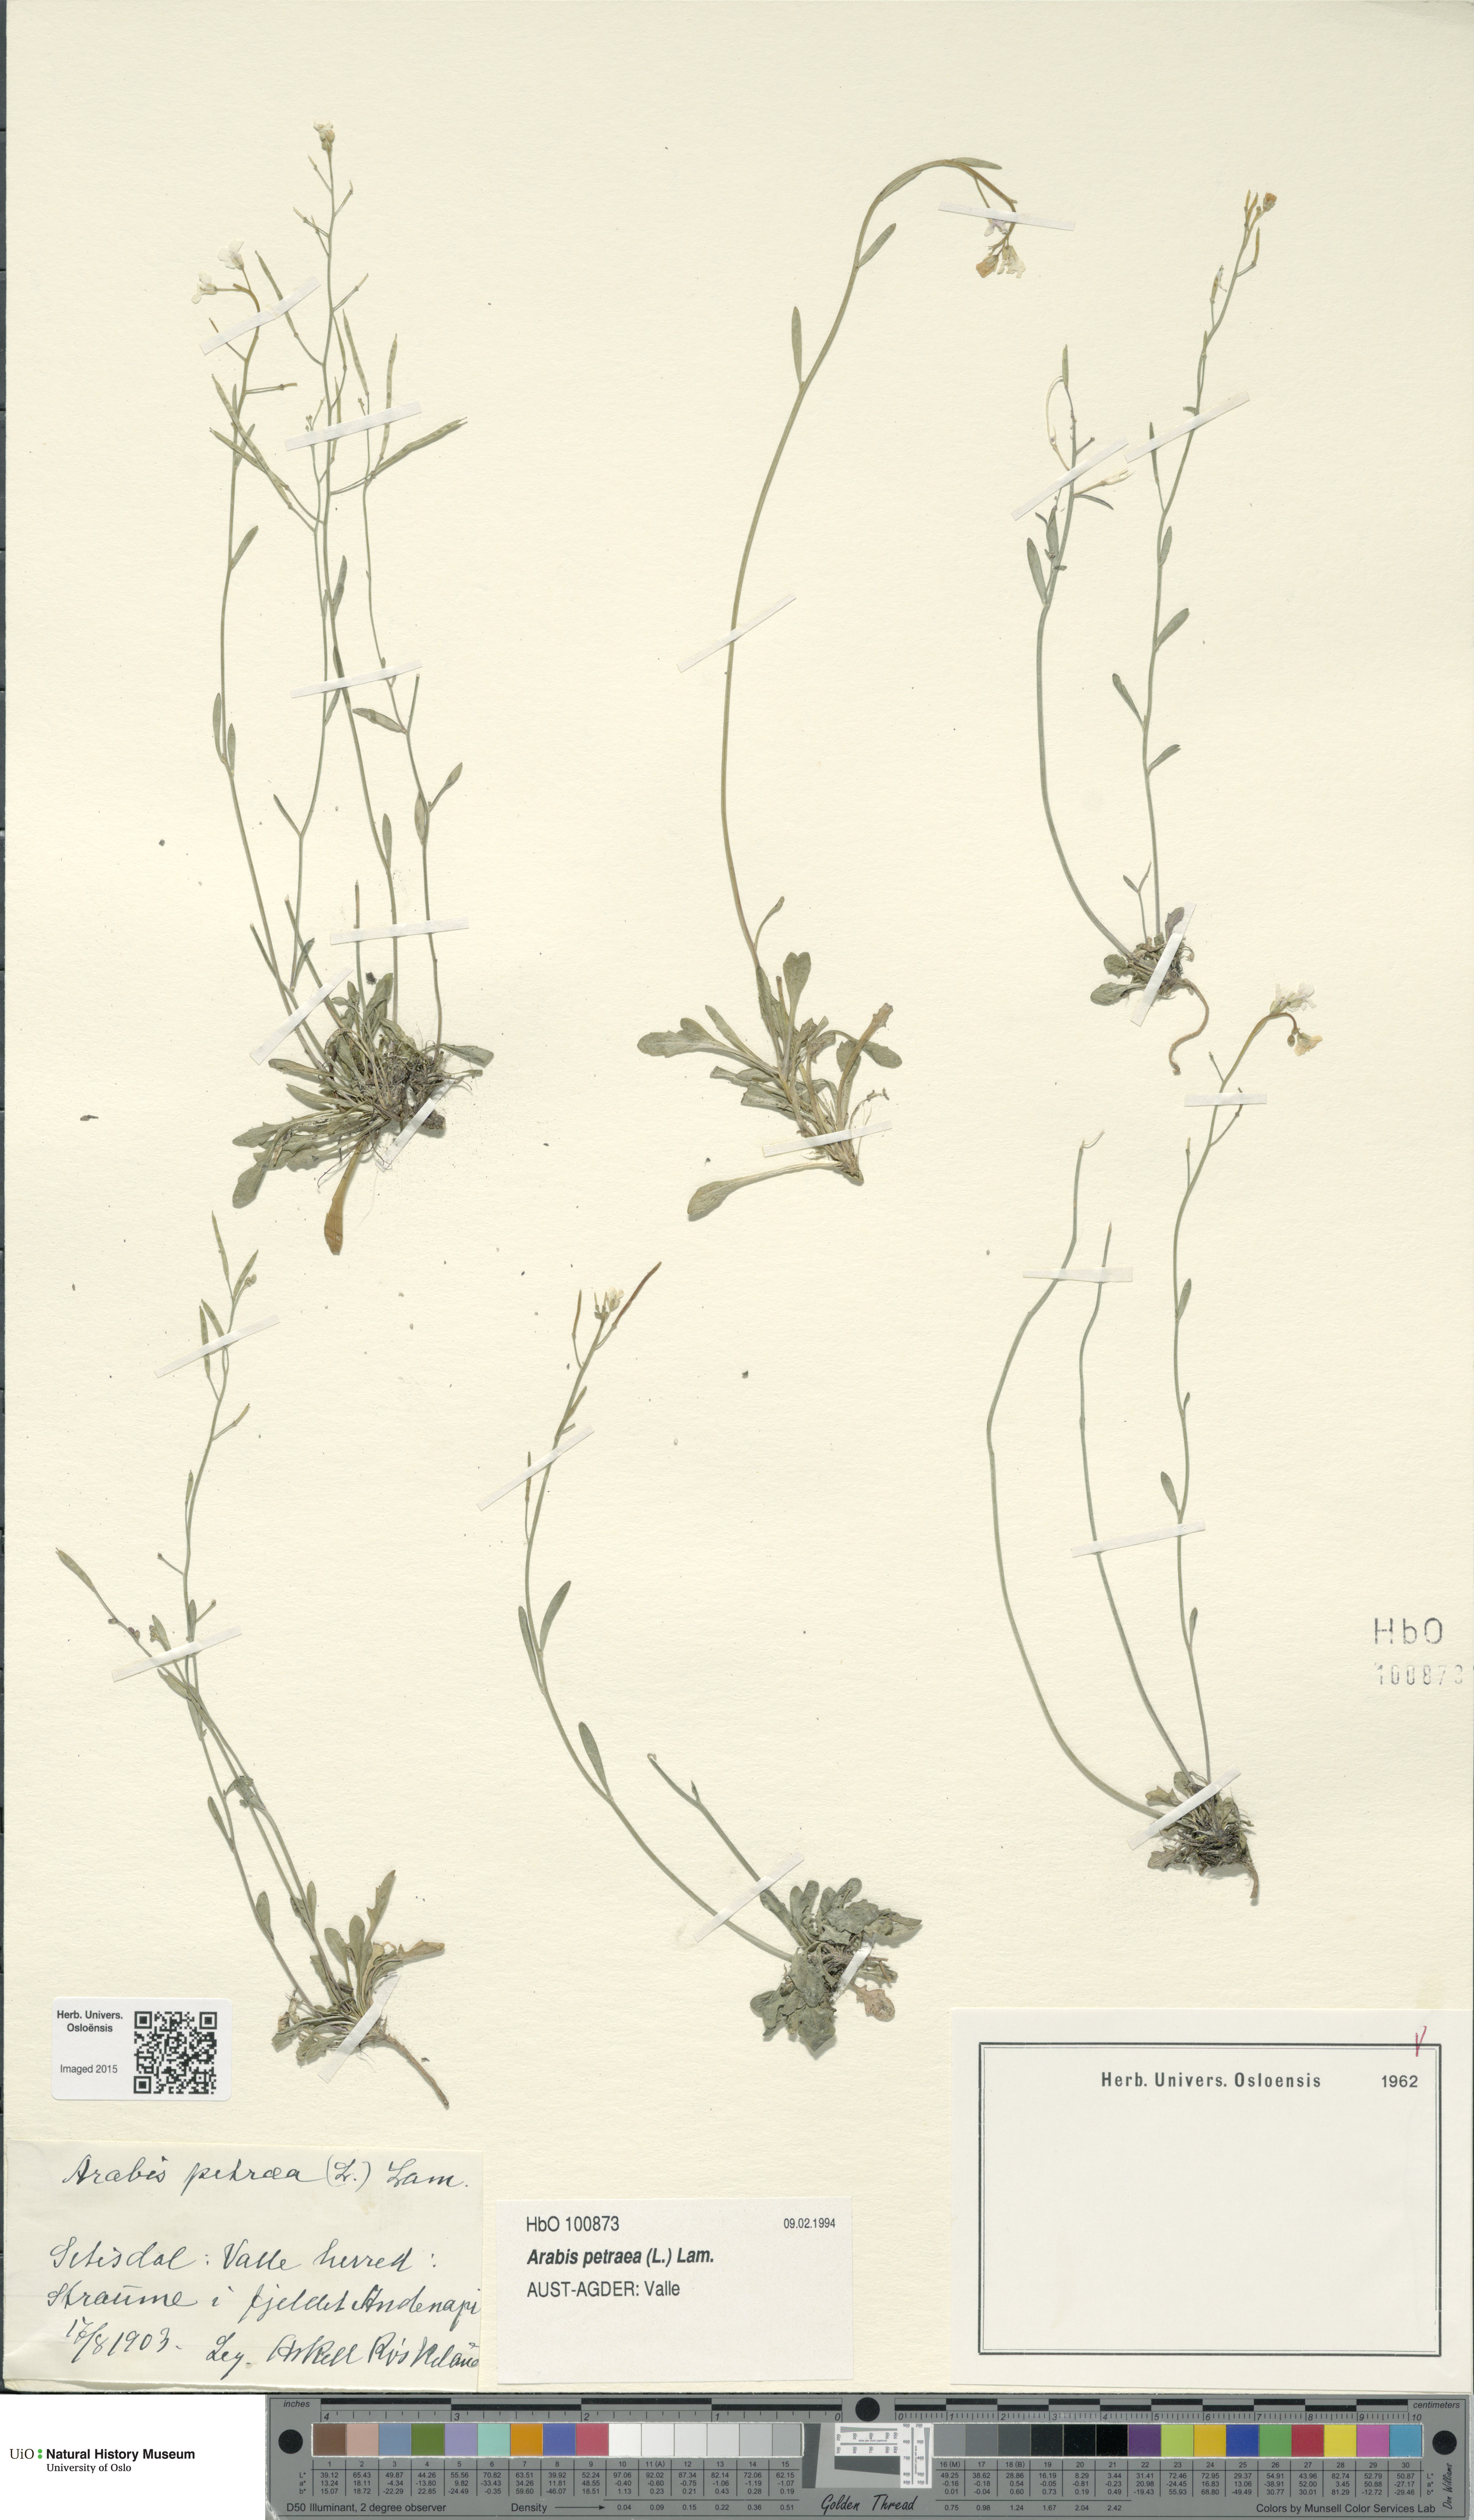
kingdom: Plantae
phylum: Tracheophyta
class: Magnoliopsida
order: Brassicales
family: Brassicaceae
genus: Arabidopsis
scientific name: Arabidopsis petraea
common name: Northern rock-cress
